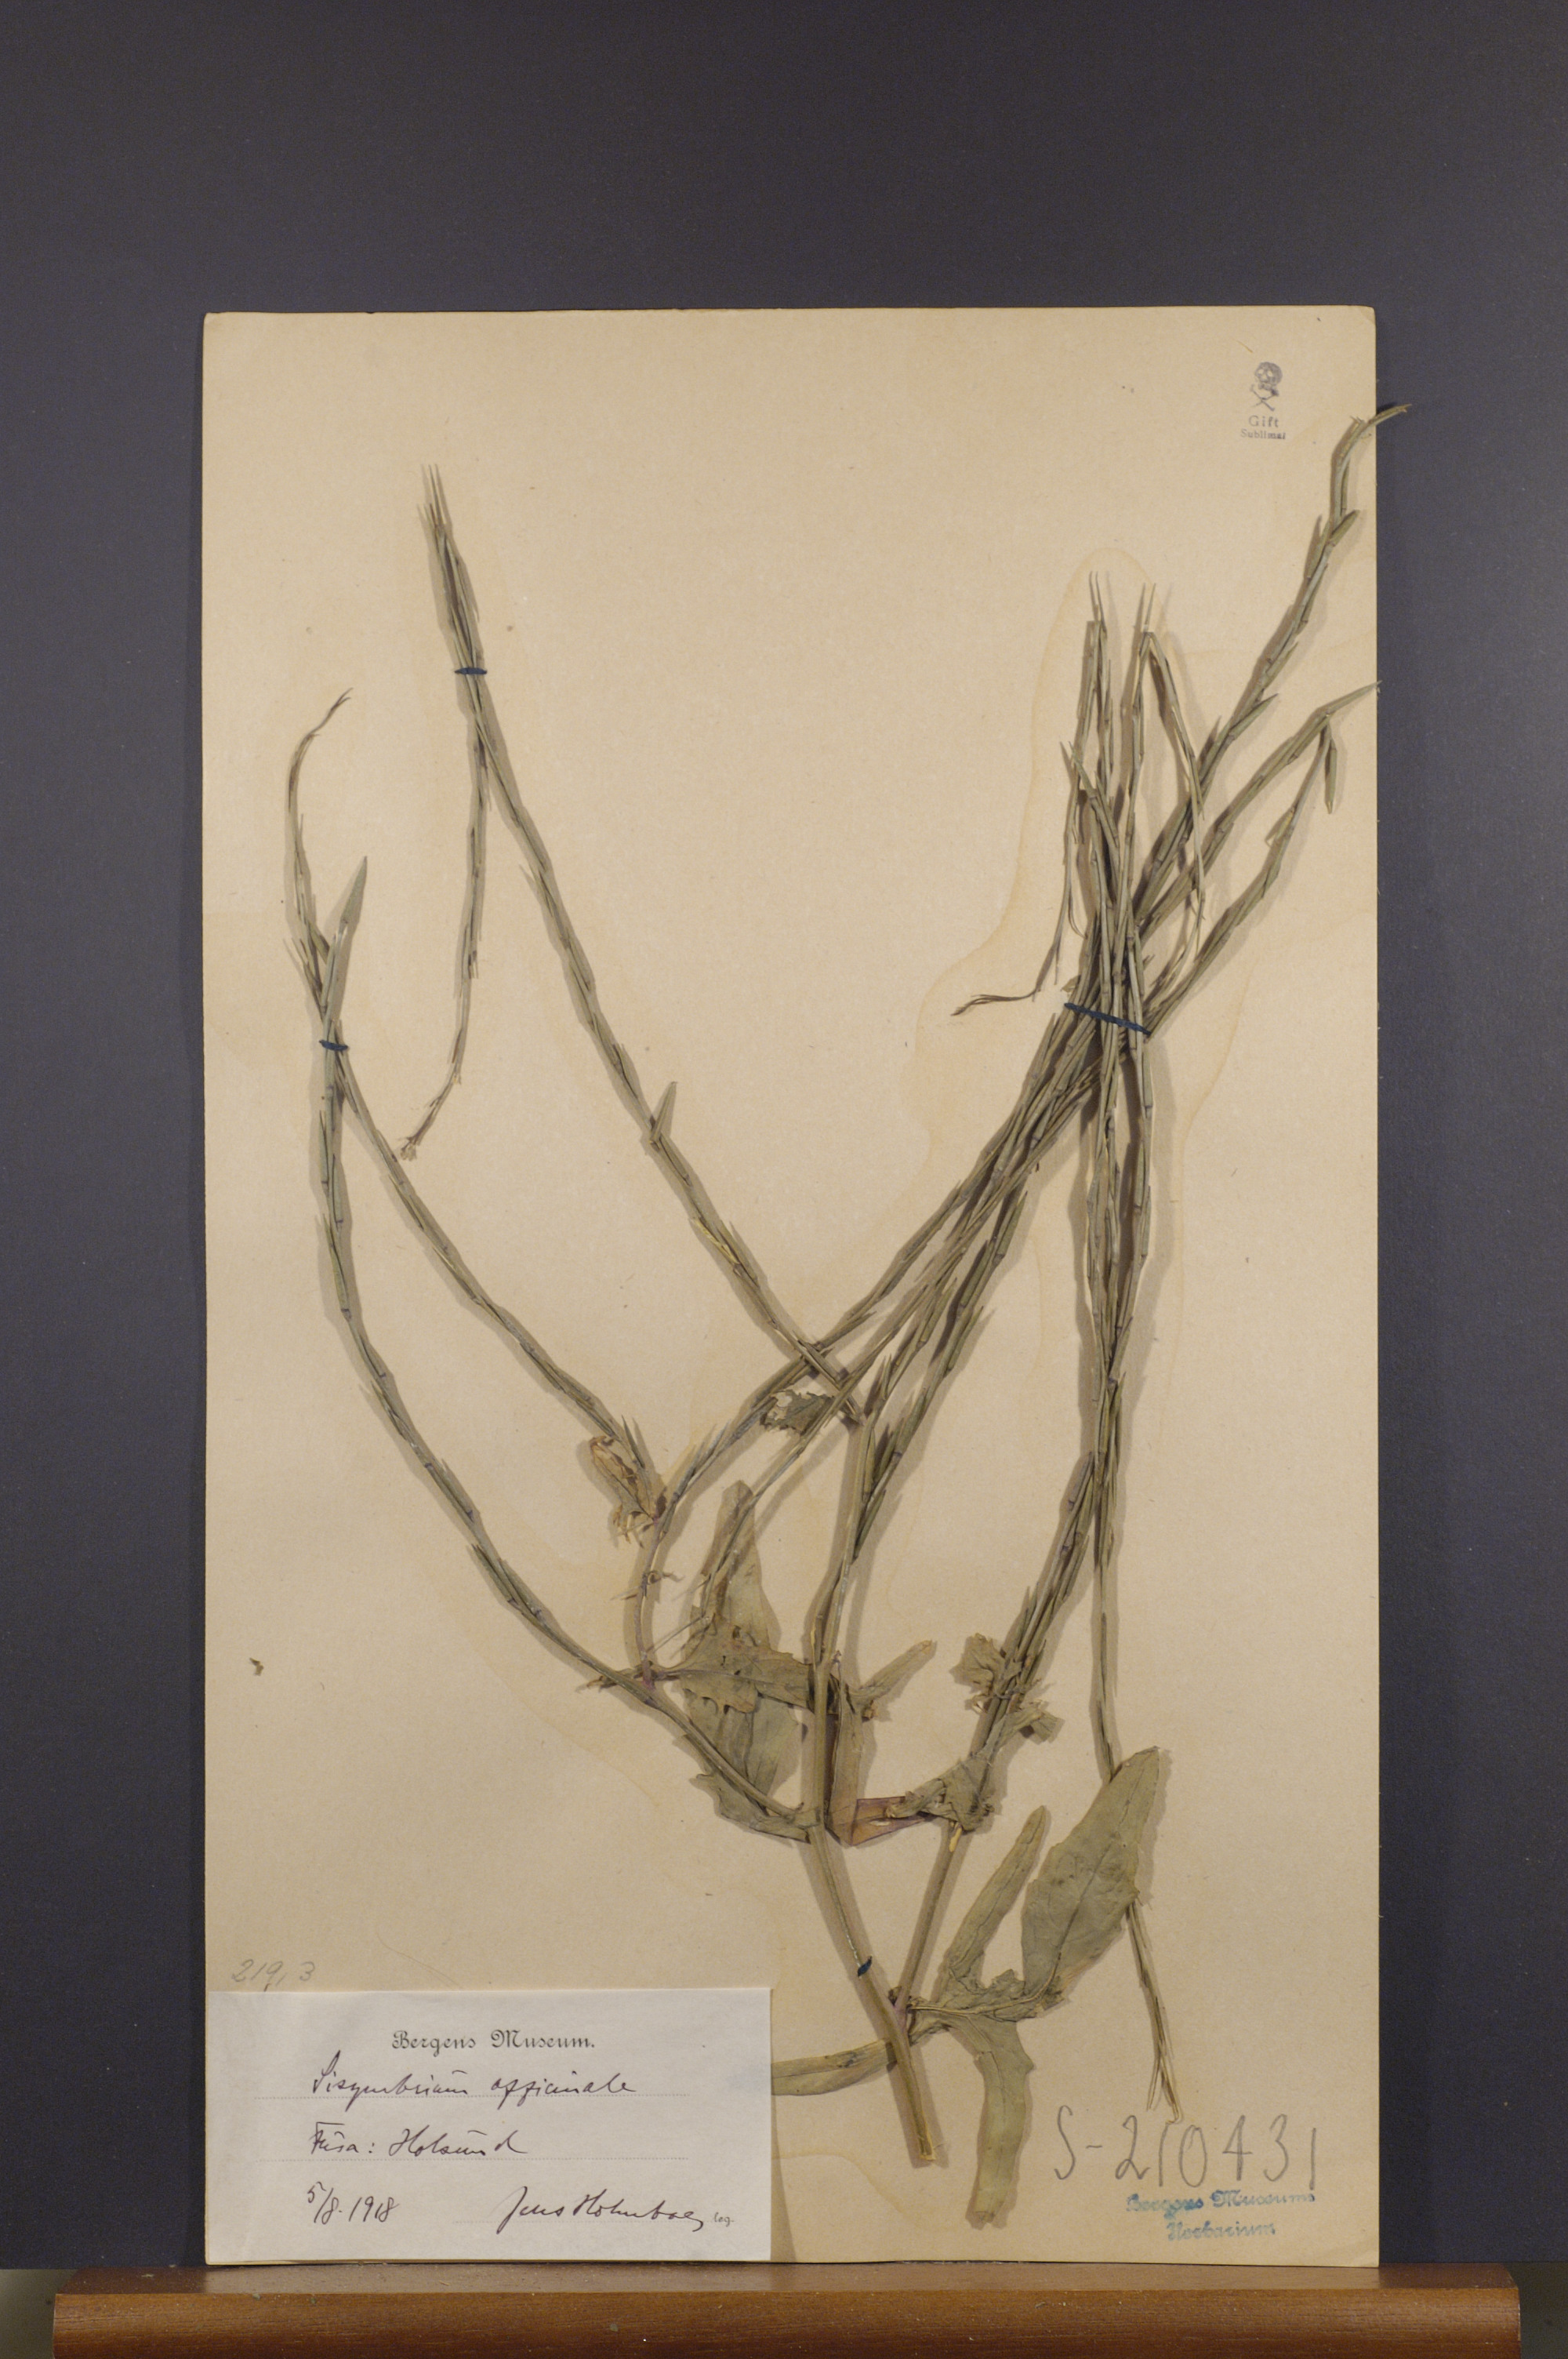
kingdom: Plantae
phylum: Tracheophyta
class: Magnoliopsida
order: Brassicales
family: Brassicaceae
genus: Sisymbrium
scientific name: Sisymbrium officinale
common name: Hedge mustard
